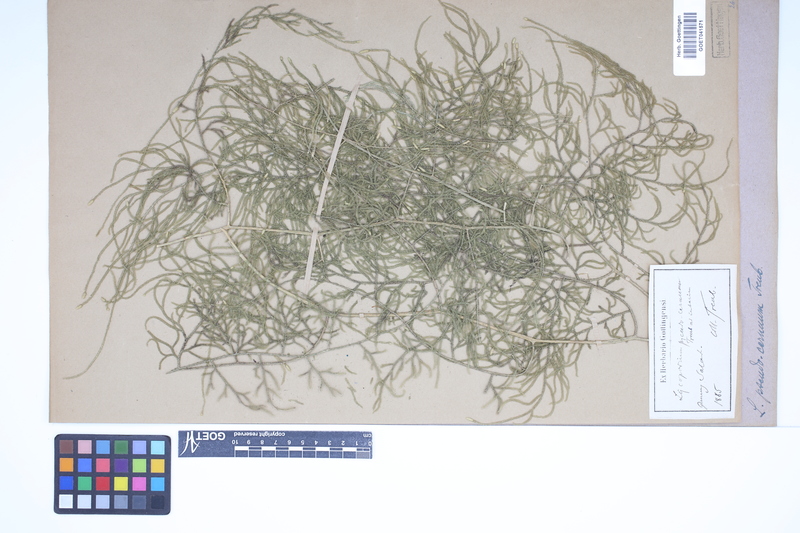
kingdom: Plantae
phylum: Tracheophyta
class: Lycopodiopsida
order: Lycopodiales
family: Lycopodiaceae
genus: Lycopodium
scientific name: Lycopodium
